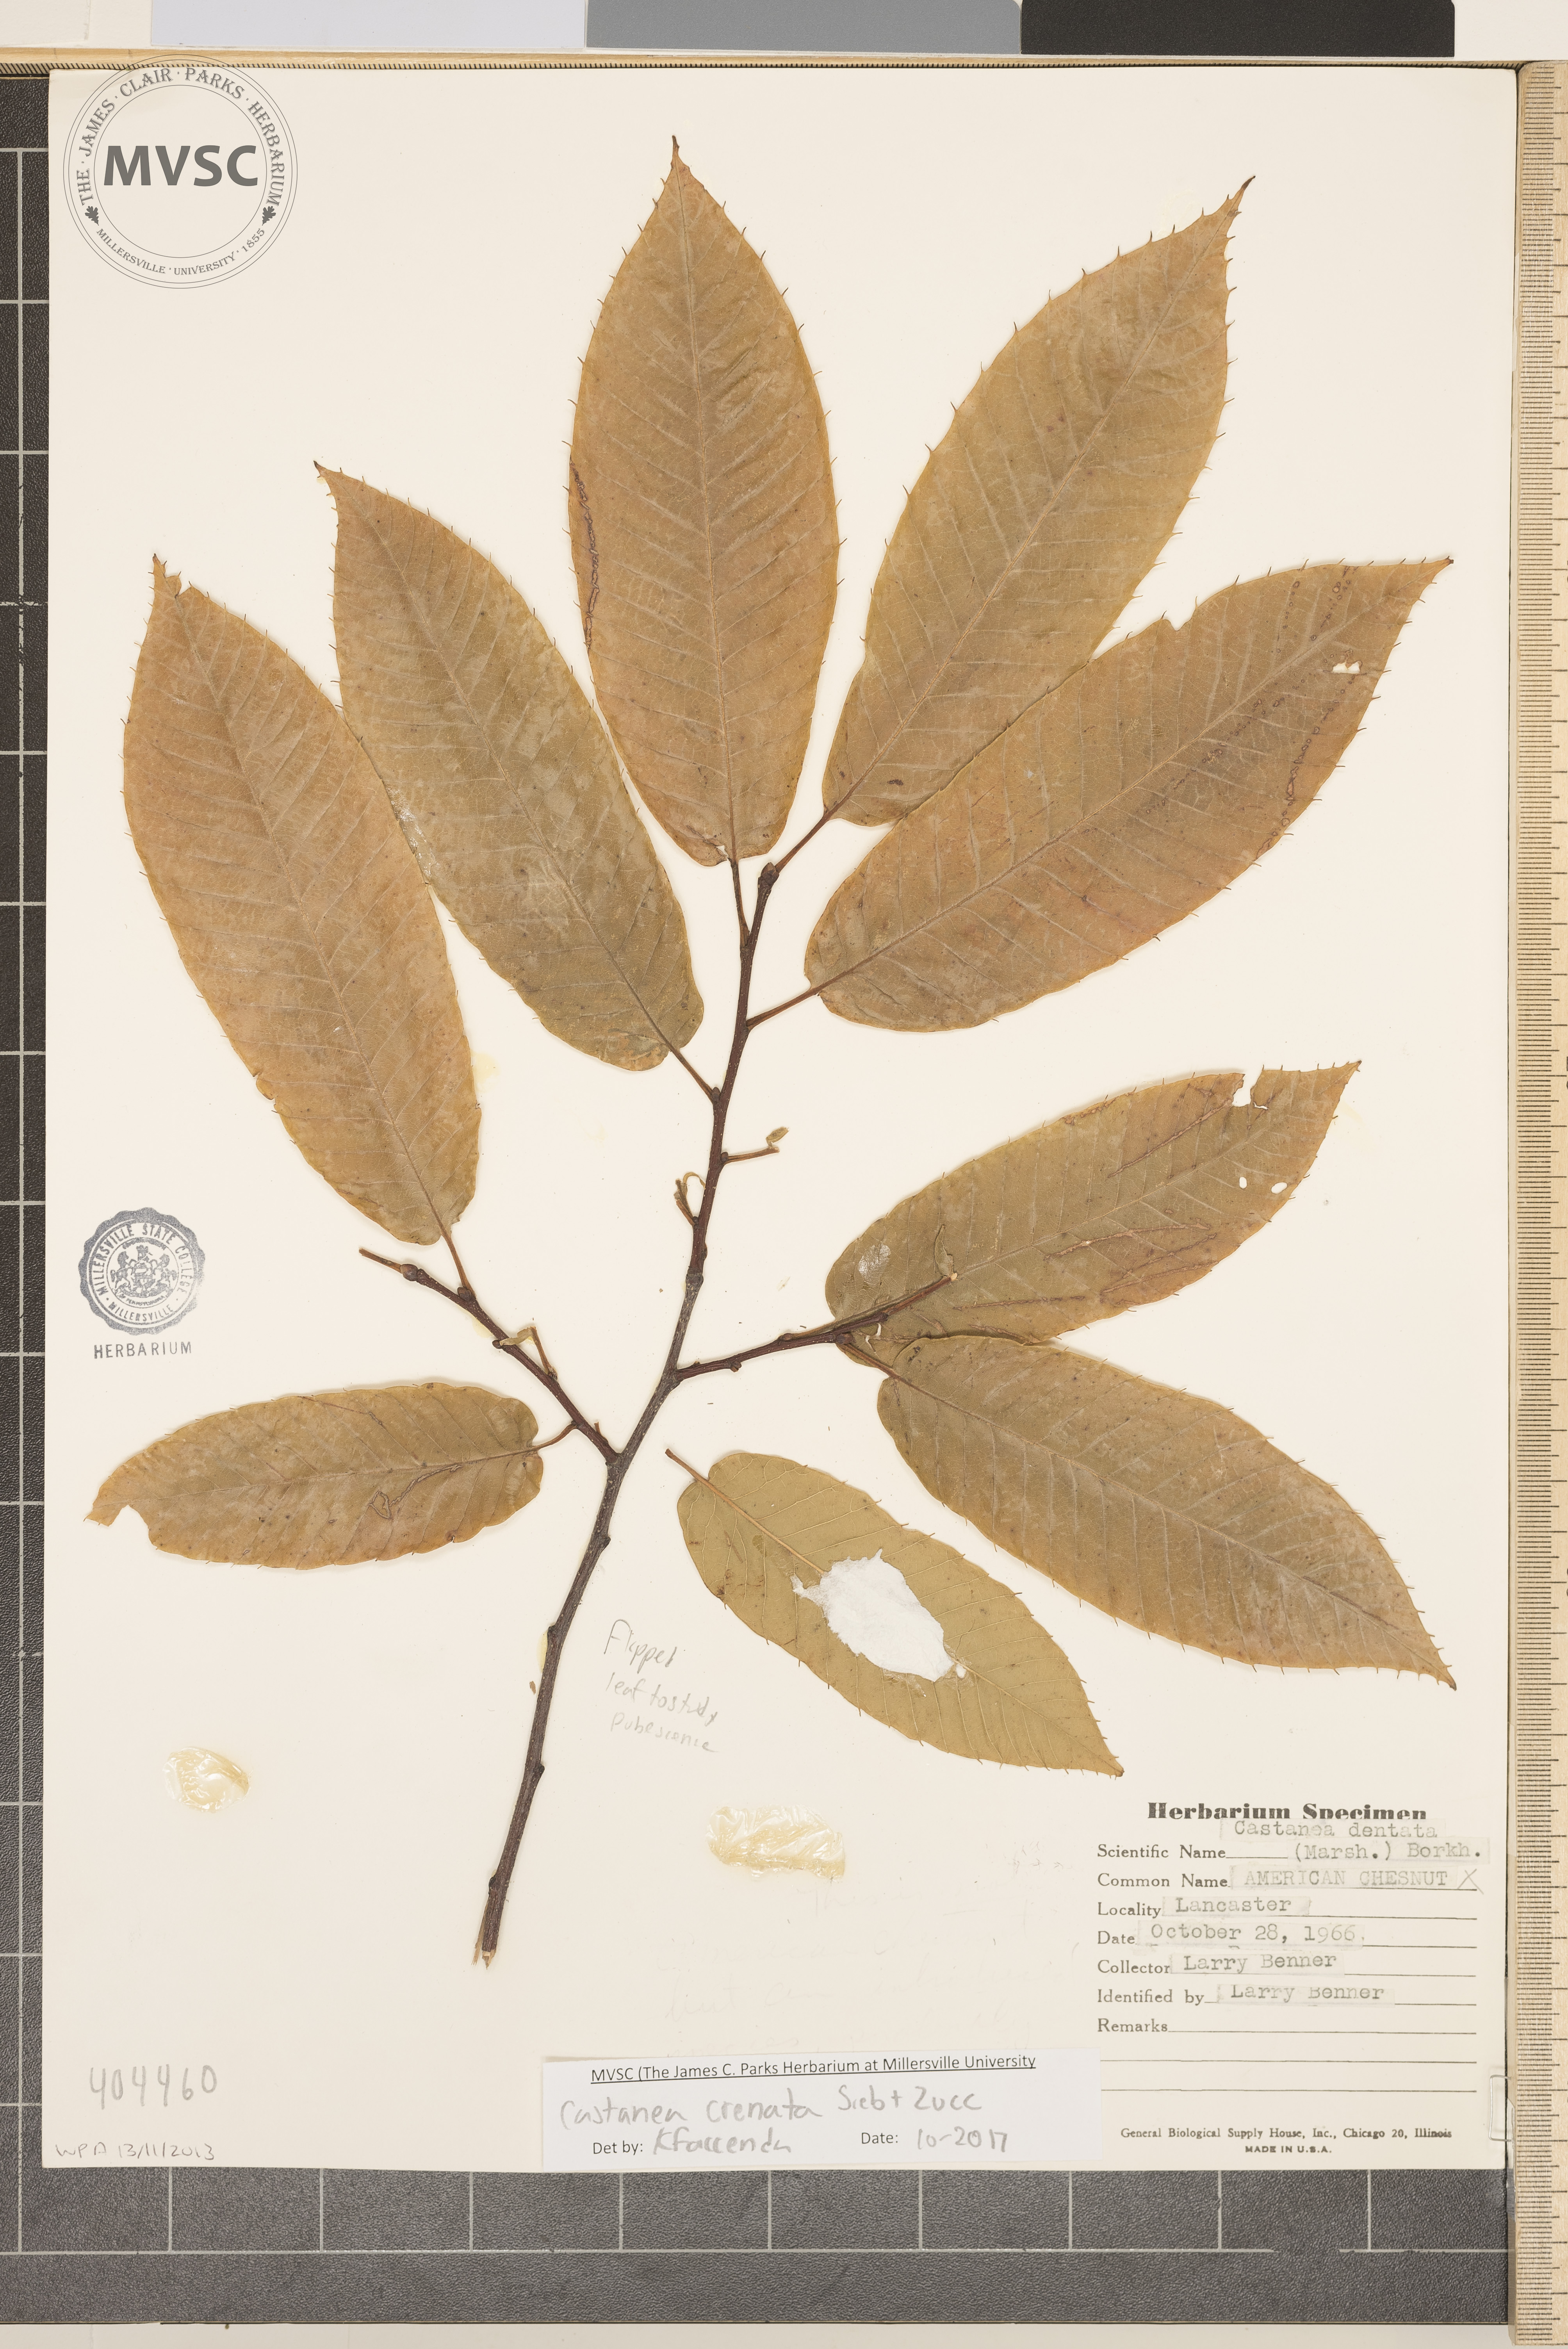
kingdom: Plantae
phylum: Tracheophyta
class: Magnoliopsida
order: Fagales
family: Fagaceae
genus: Castanea
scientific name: Castanea crenata
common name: Chestnut
